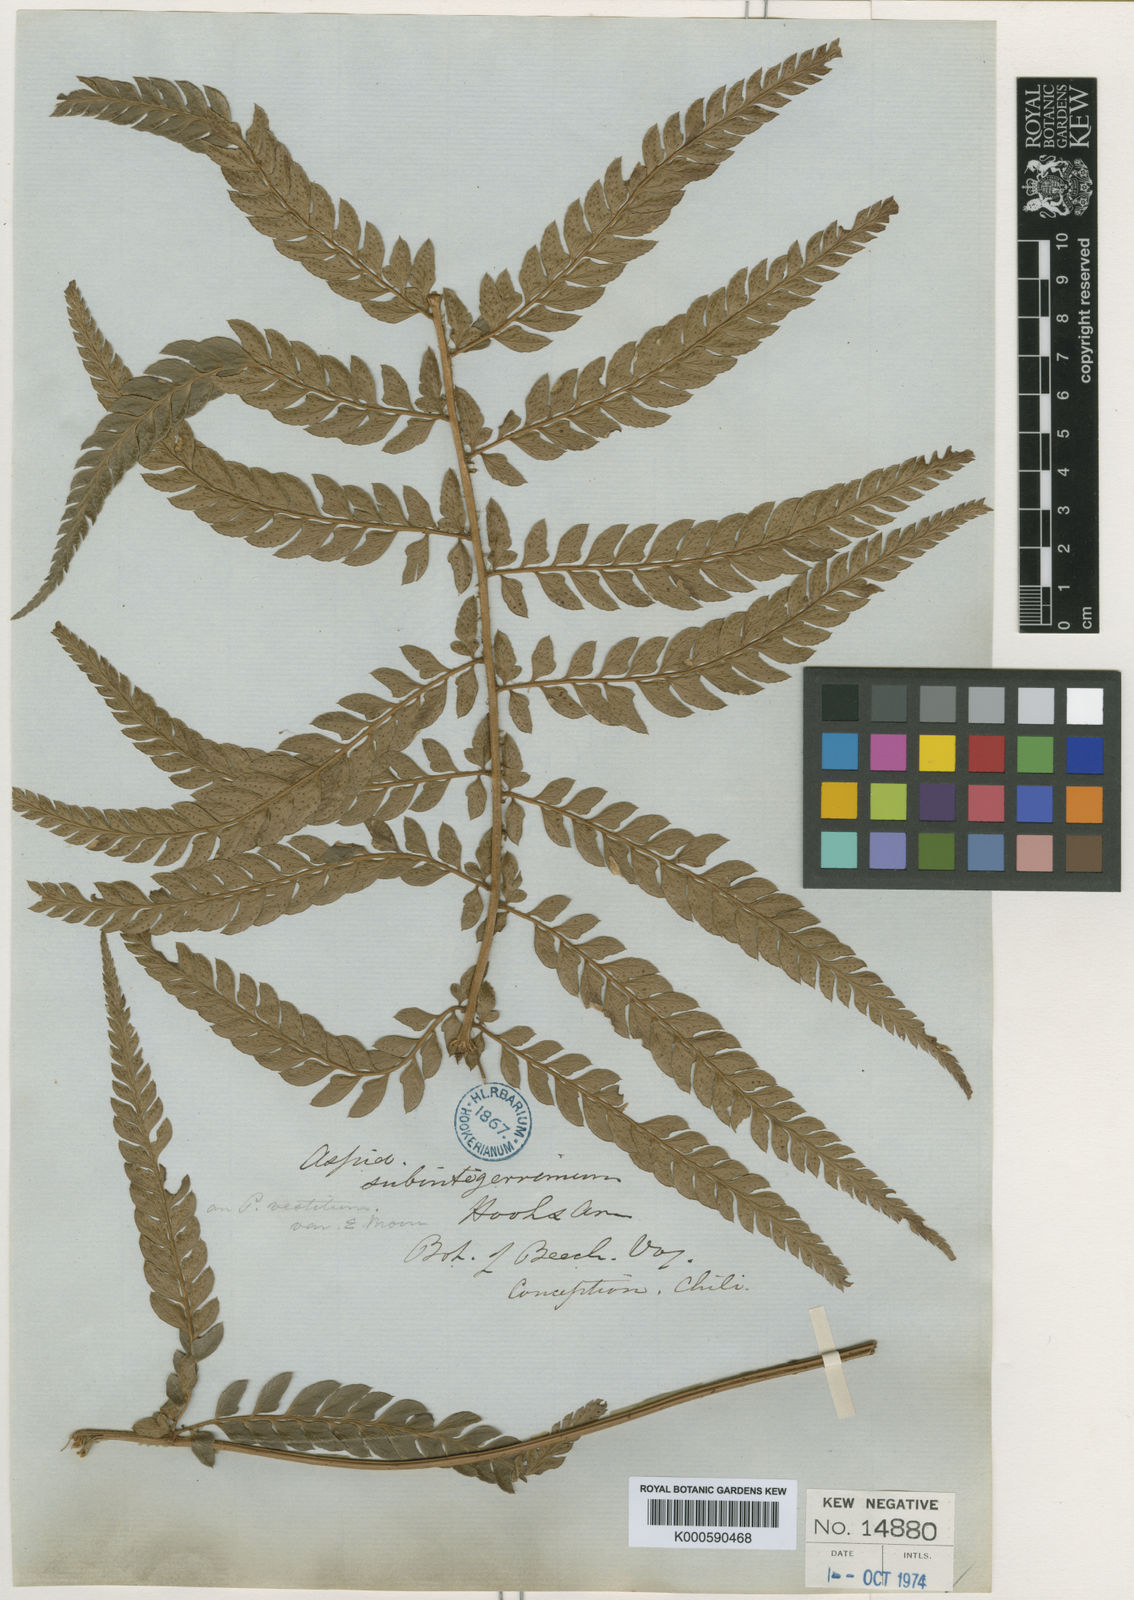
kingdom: Plantae
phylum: Tracheophyta
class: Polypodiopsida
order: Polypodiales
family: Dryopteridaceae
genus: Polystichum
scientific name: Polystichum
